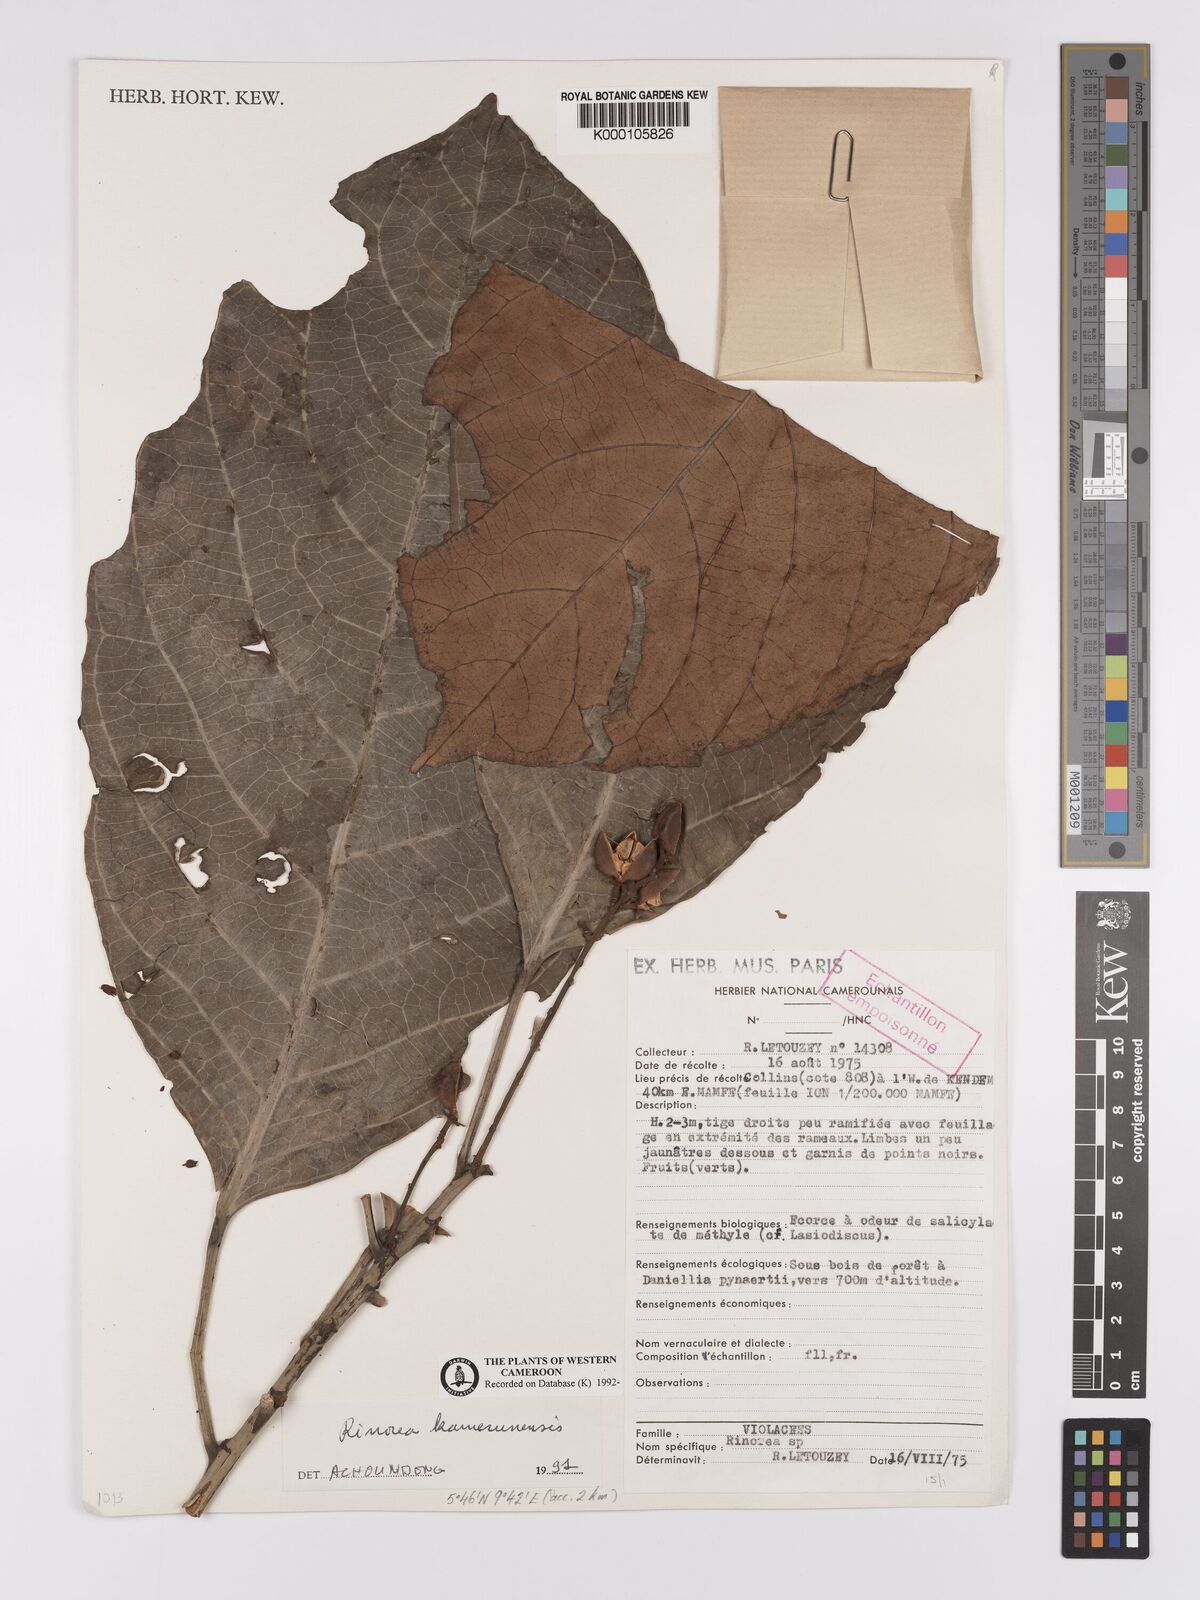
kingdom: Plantae
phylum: Tracheophyta
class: Magnoliopsida
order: Malpighiales
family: Violaceae
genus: Rinorea
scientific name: Rinorea kamerunensis
